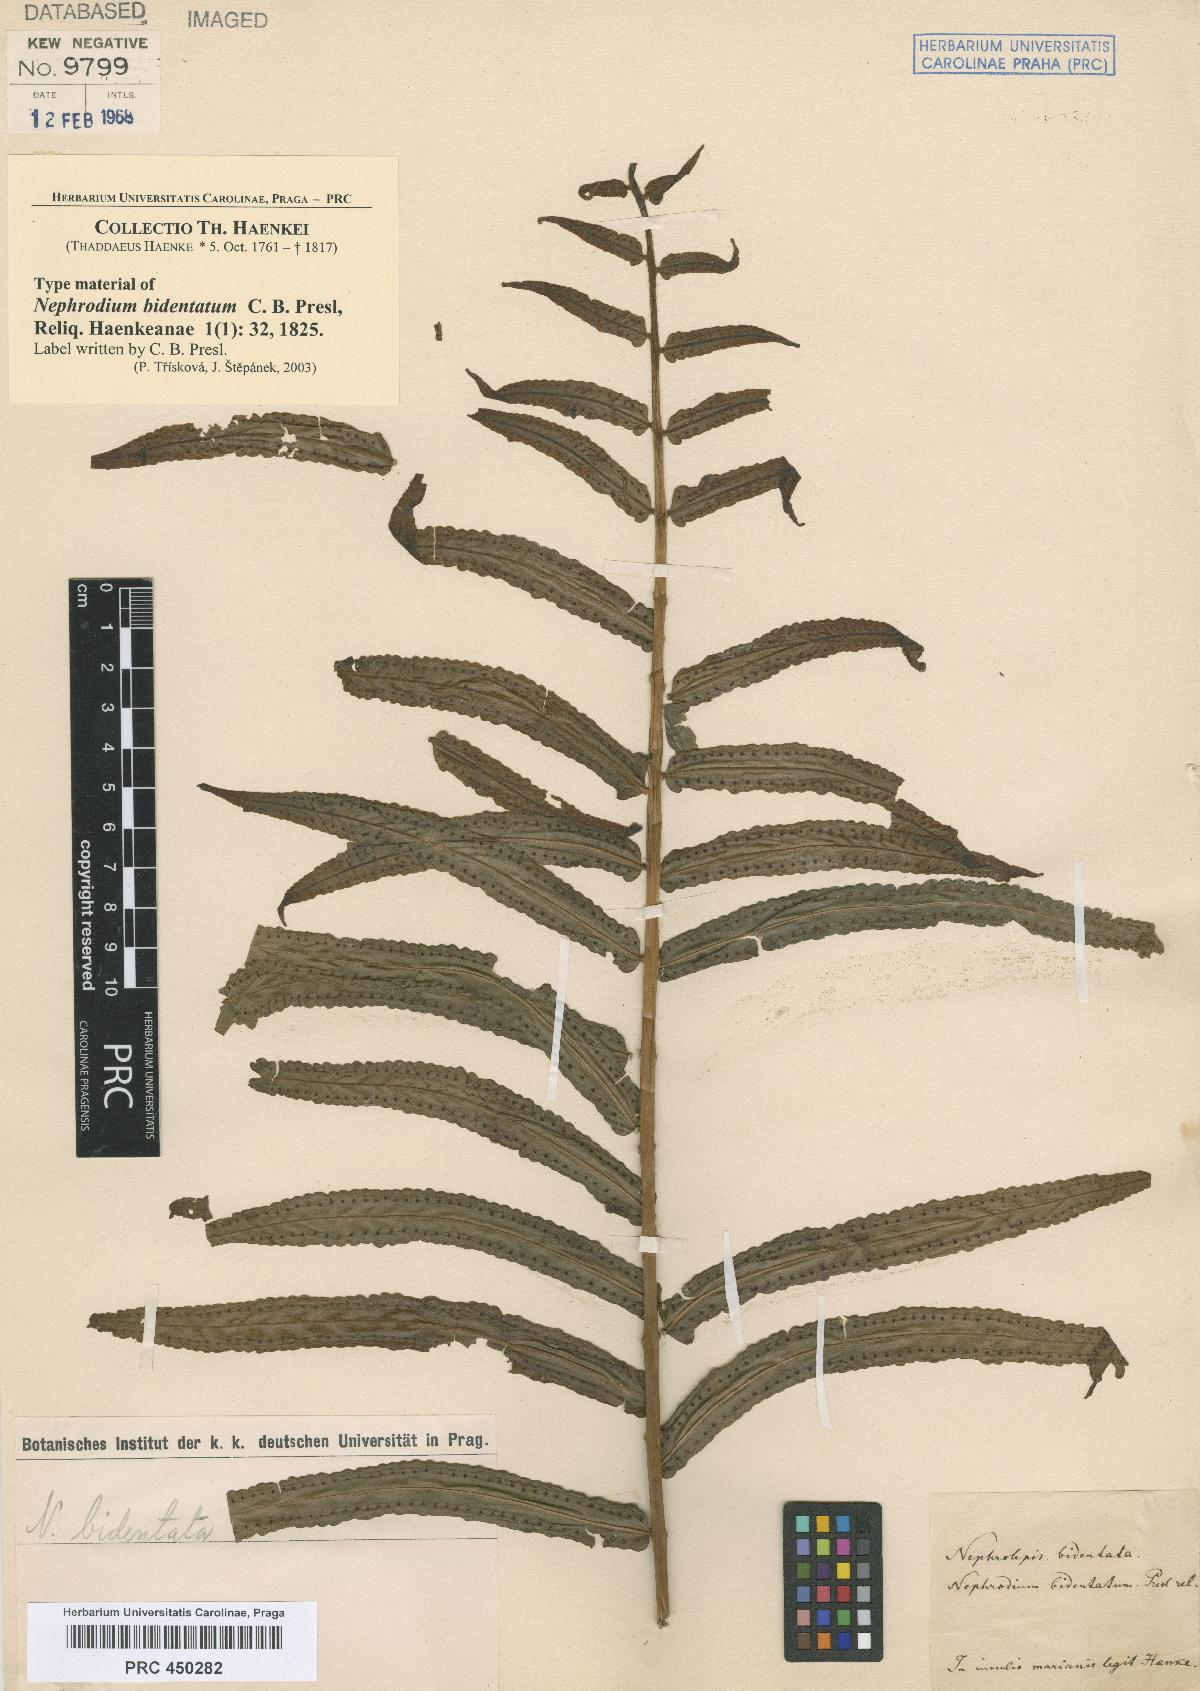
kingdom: Plantae
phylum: Tracheophyta
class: Polypodiopsida
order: Polypodiales
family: Nephrolepidaceae
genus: Nephrolepis
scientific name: Nephrolepis
